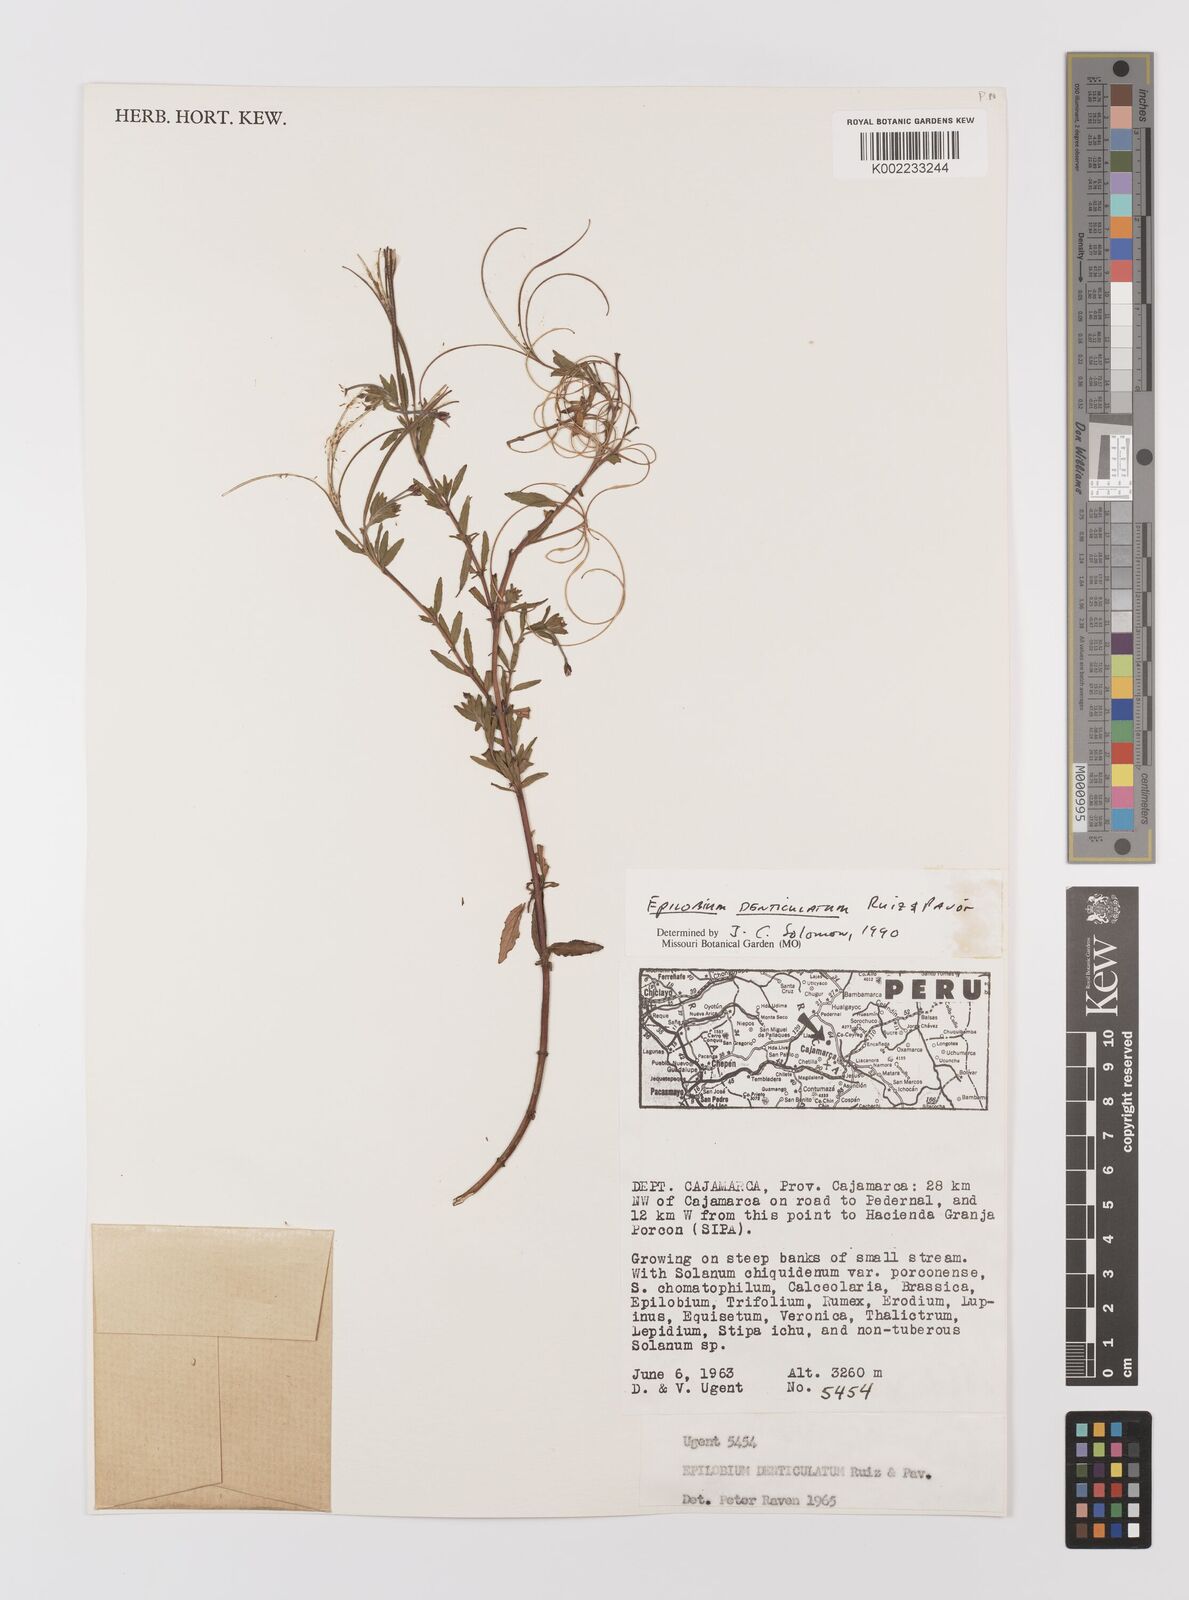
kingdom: Plantae
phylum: Tracheophyta
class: Magnoliopsida
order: Myrtales
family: Onagraceae
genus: Epilobium
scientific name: Epilobium denticulatum
